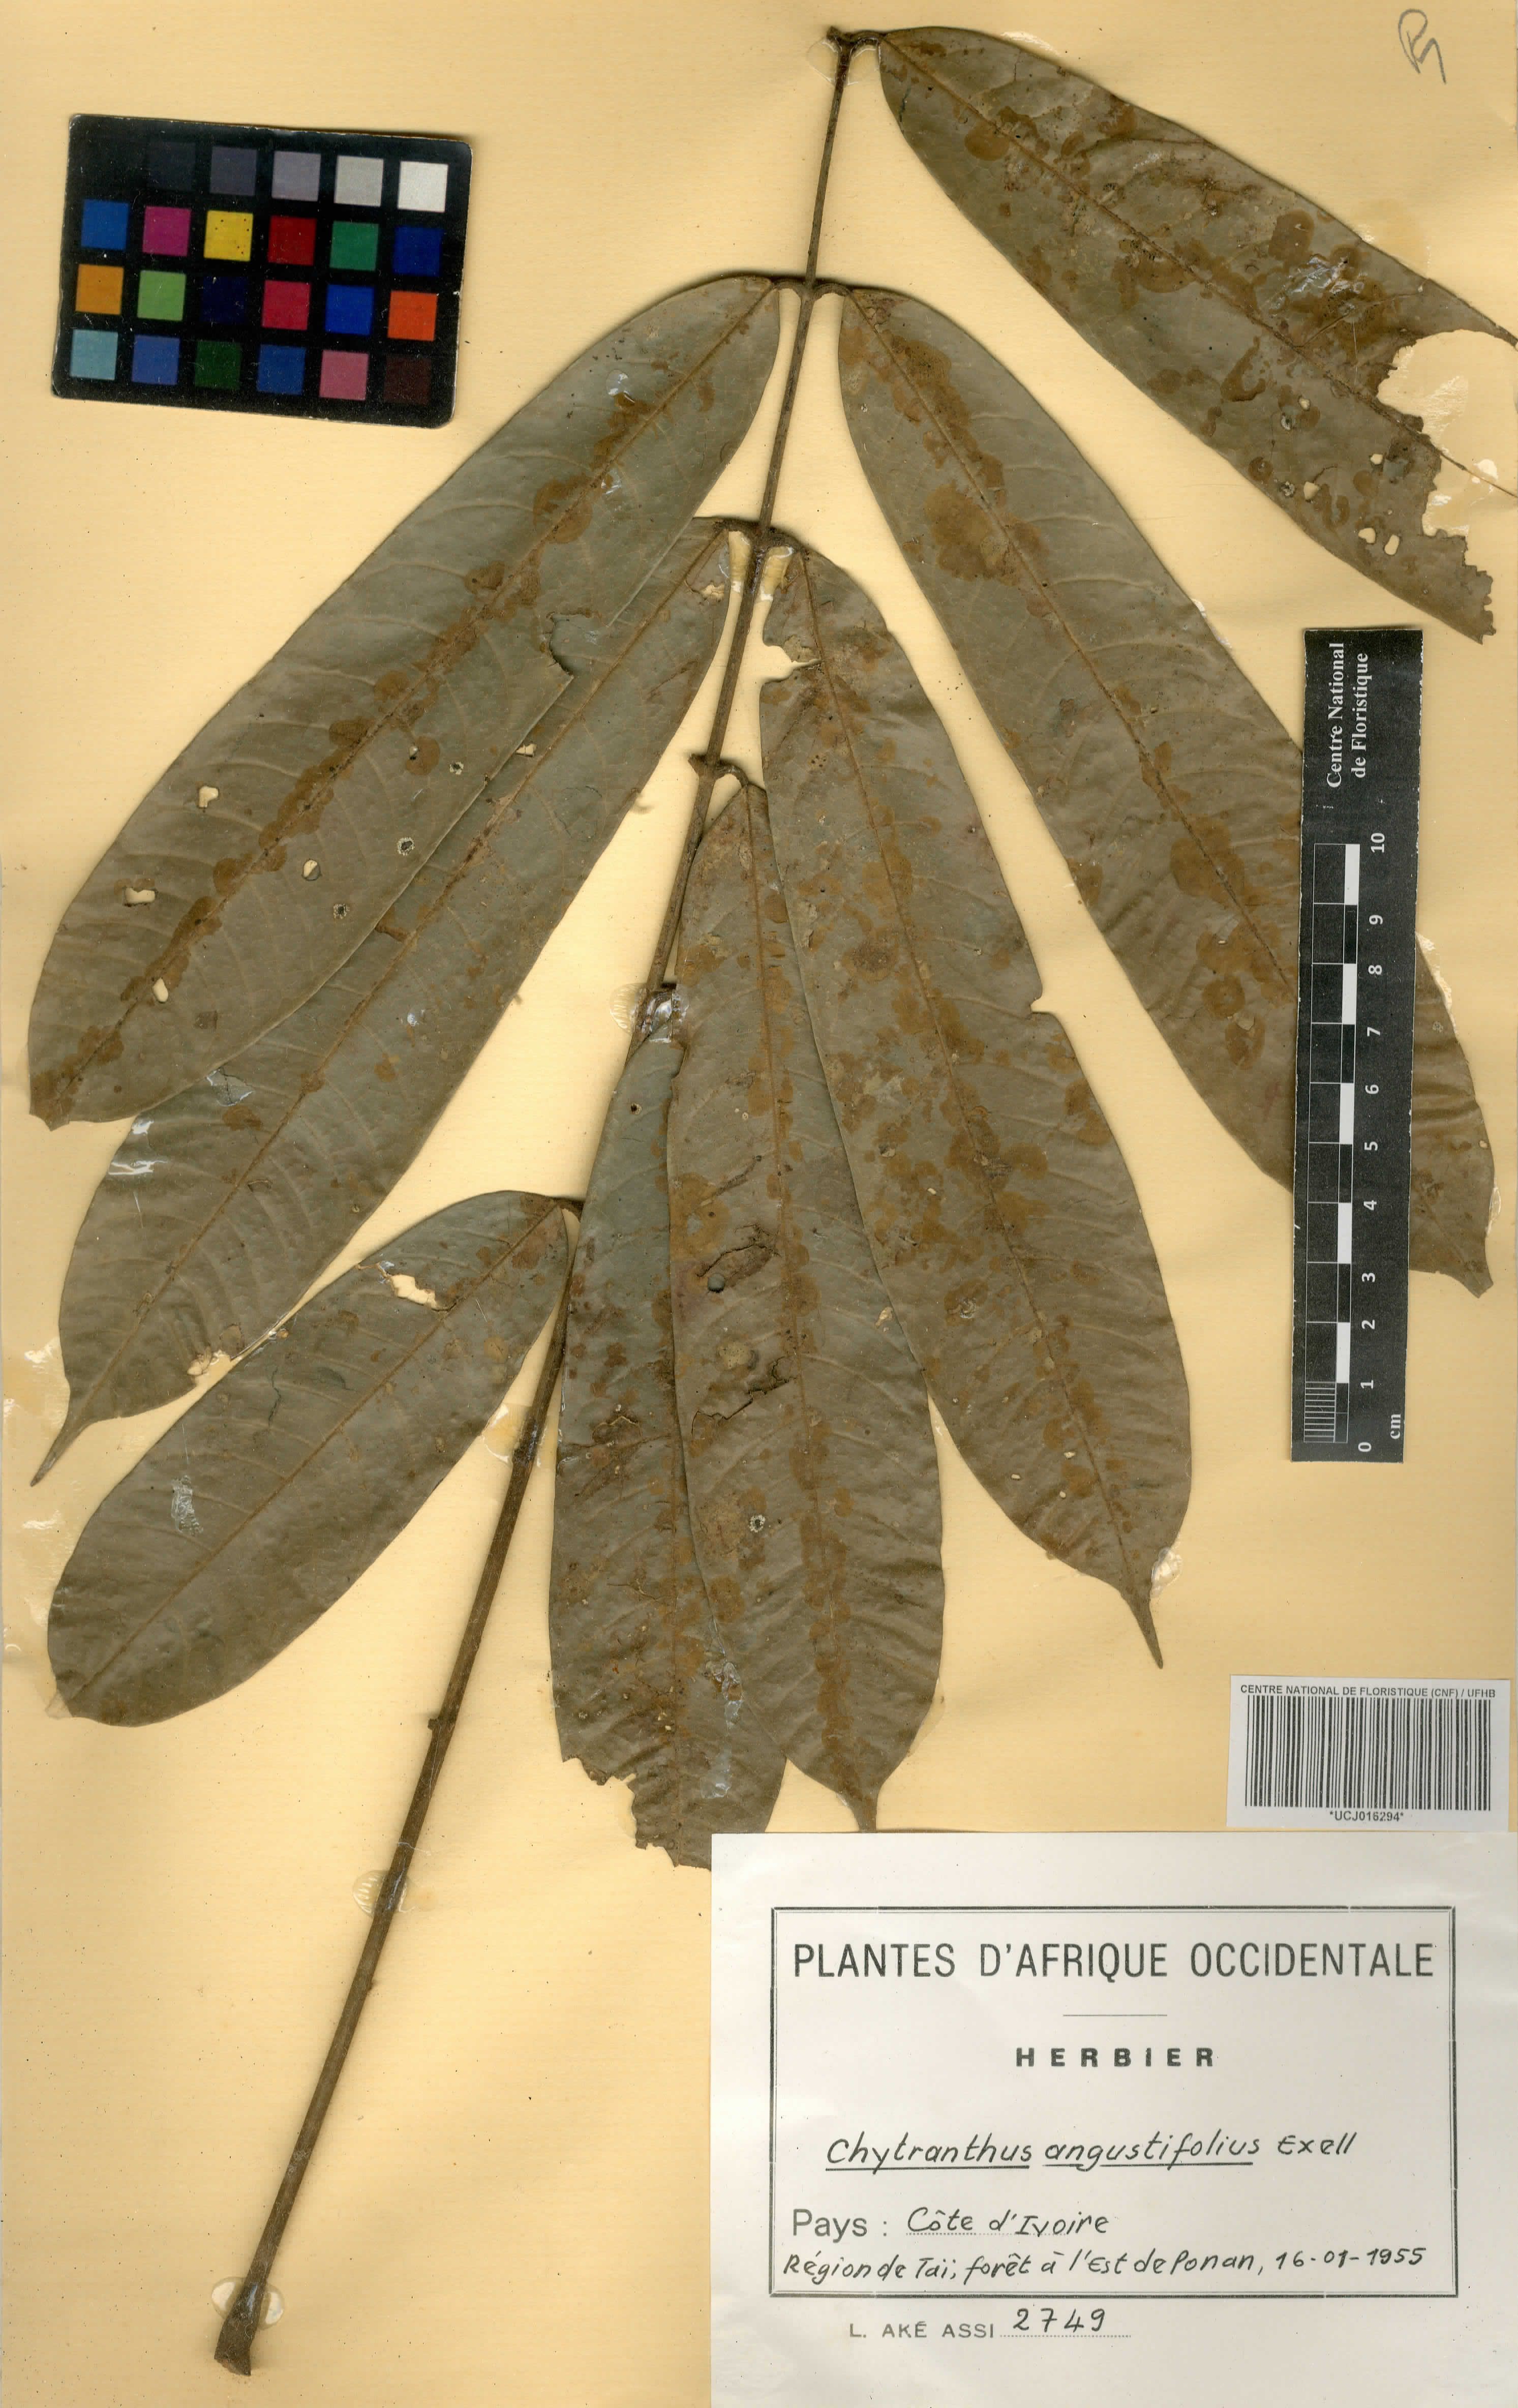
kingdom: Plantae
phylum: Tracheophyta
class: Magnoliopsida
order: Sapindales
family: Sapindaceae
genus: Chytranthus
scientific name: Chytranthus angustifolius
